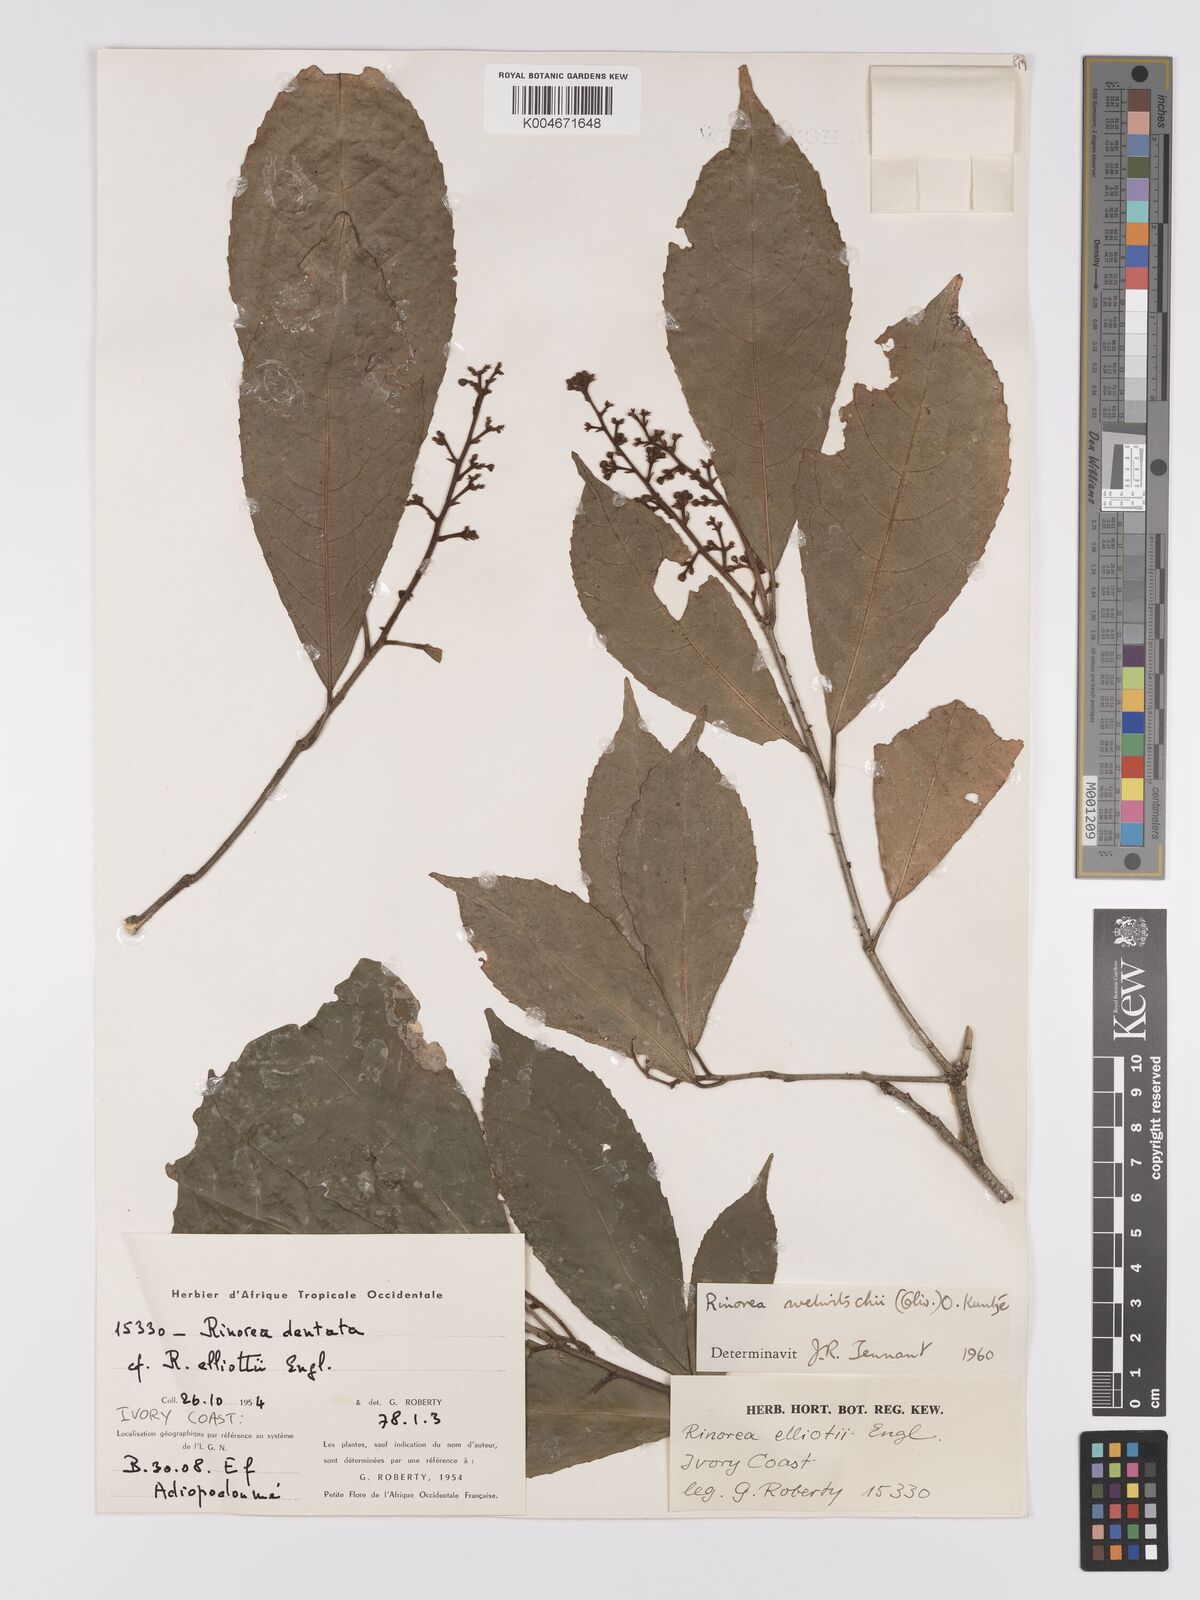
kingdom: Plantae
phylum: Tracheophyta
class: Magnoliopsida
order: Malpighiales
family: Violaceae
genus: Rinorea
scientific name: Rinorea welwitschii
